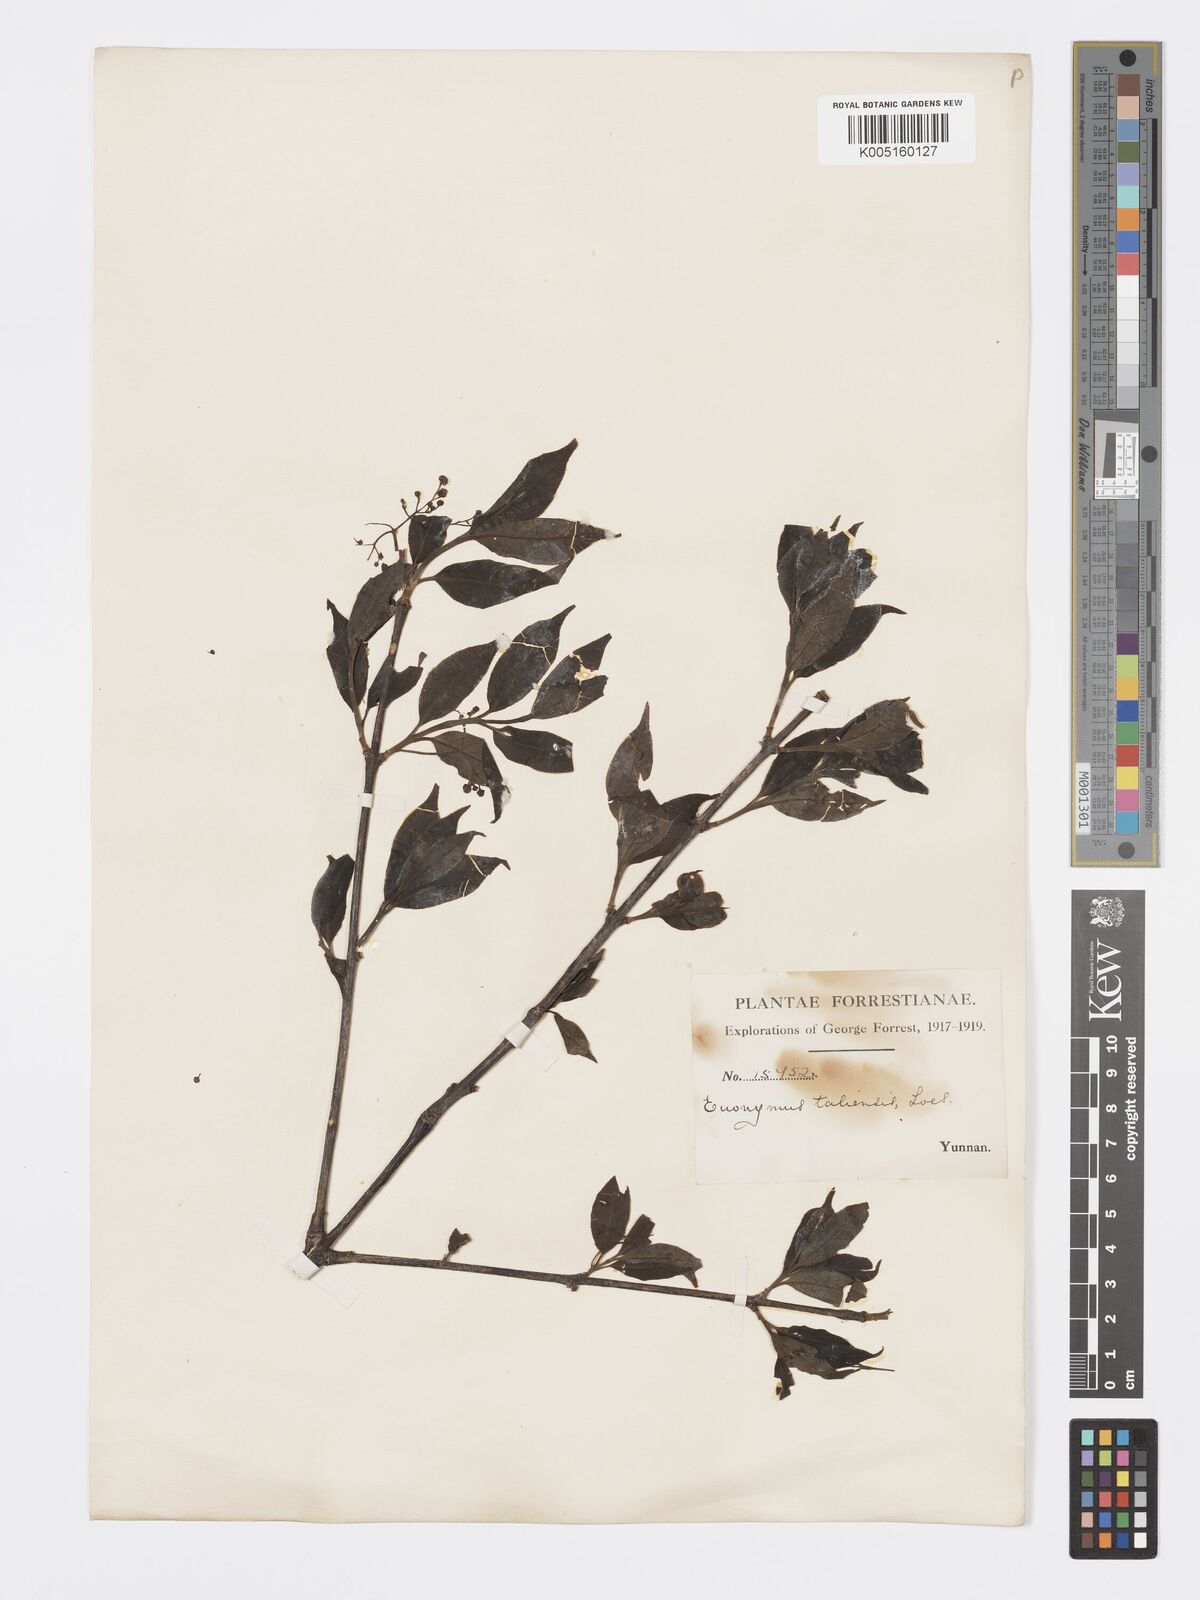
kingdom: Plantae
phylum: Tracheophyta
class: Magnoliopsida
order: Celastrales
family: Celastraceae
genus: Euonymus
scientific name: Euonymus amygdalifolius
